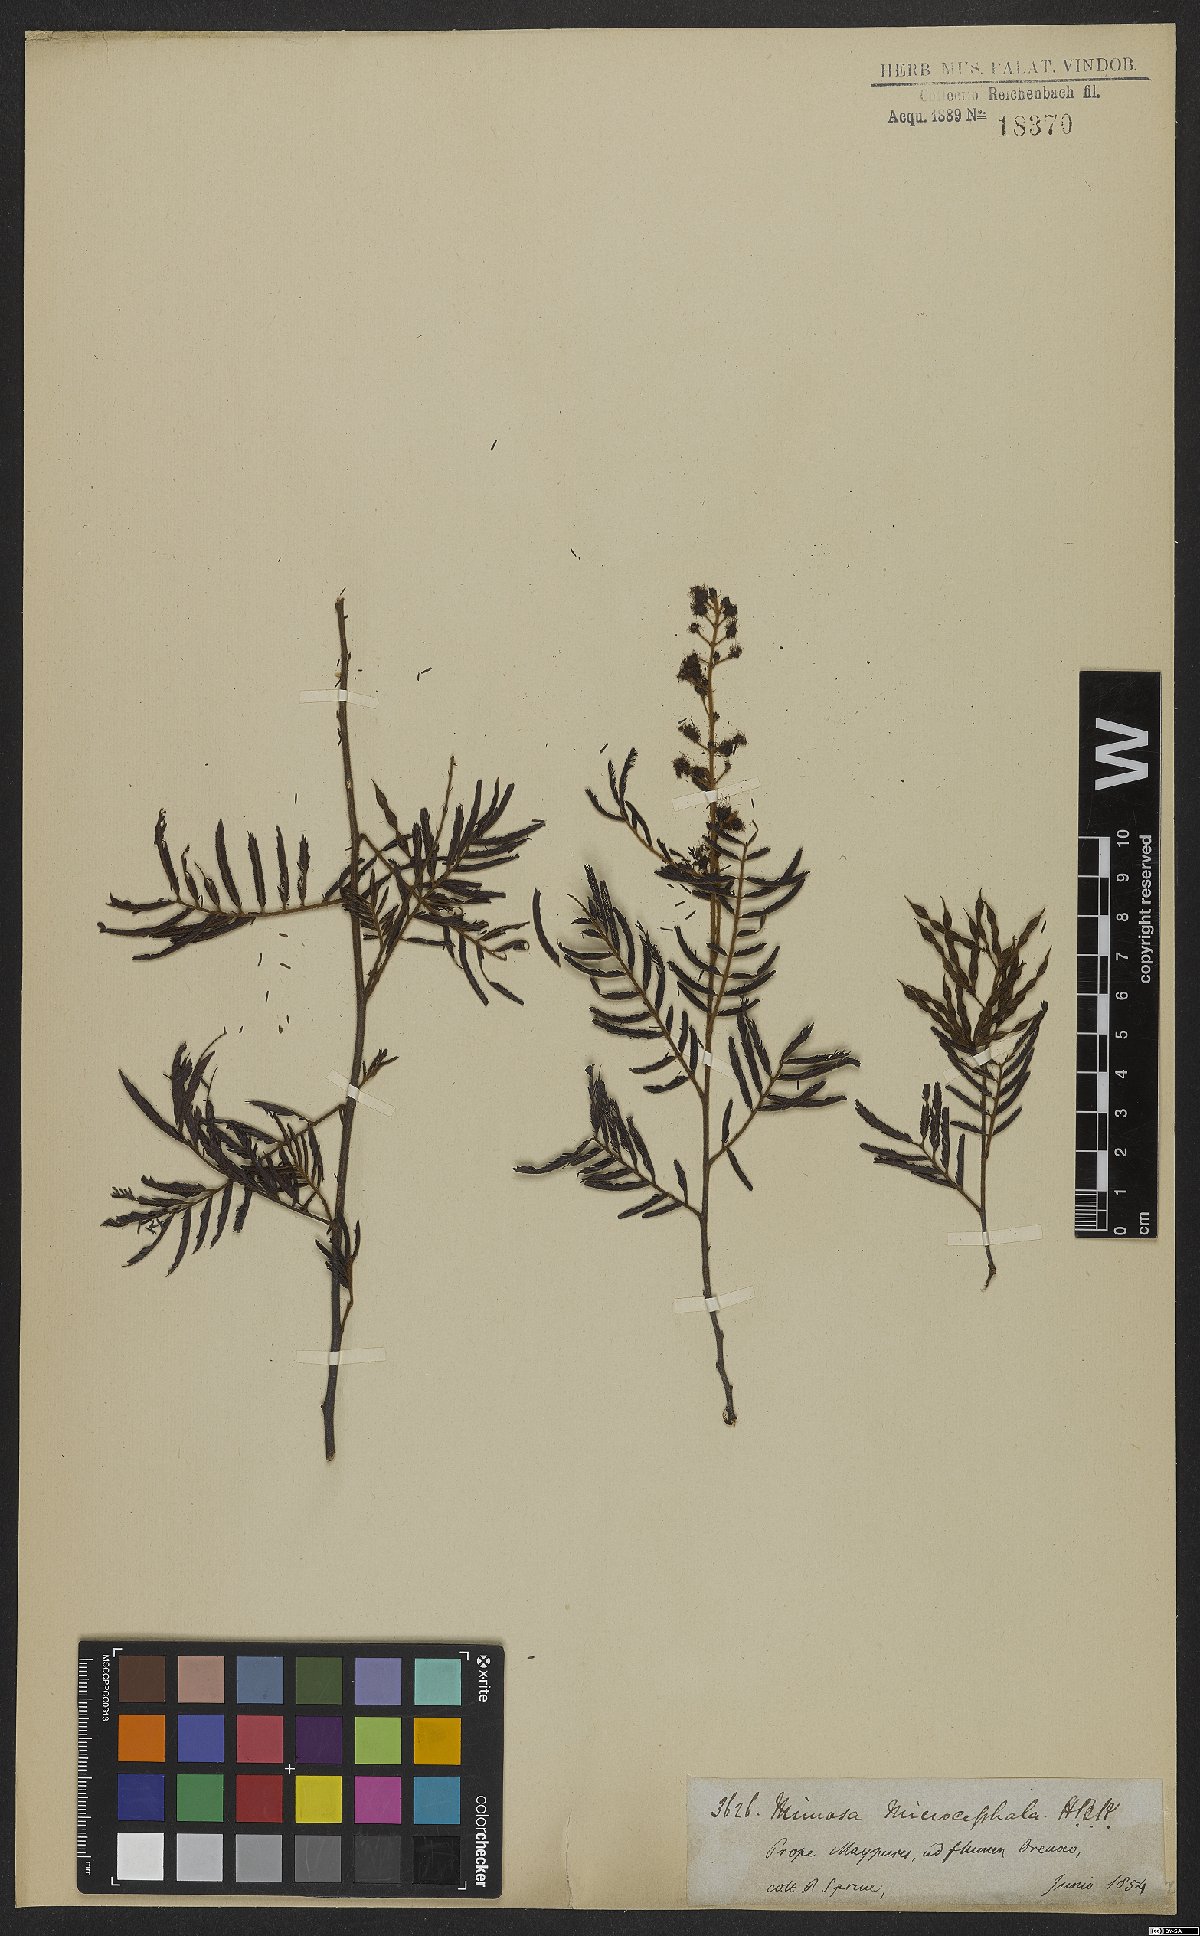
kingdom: Plantae
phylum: Tracheophyta
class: Magnoliopsida
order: Fabales
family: Fabaceae
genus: Mimosa
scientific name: Mimosa microcephala
